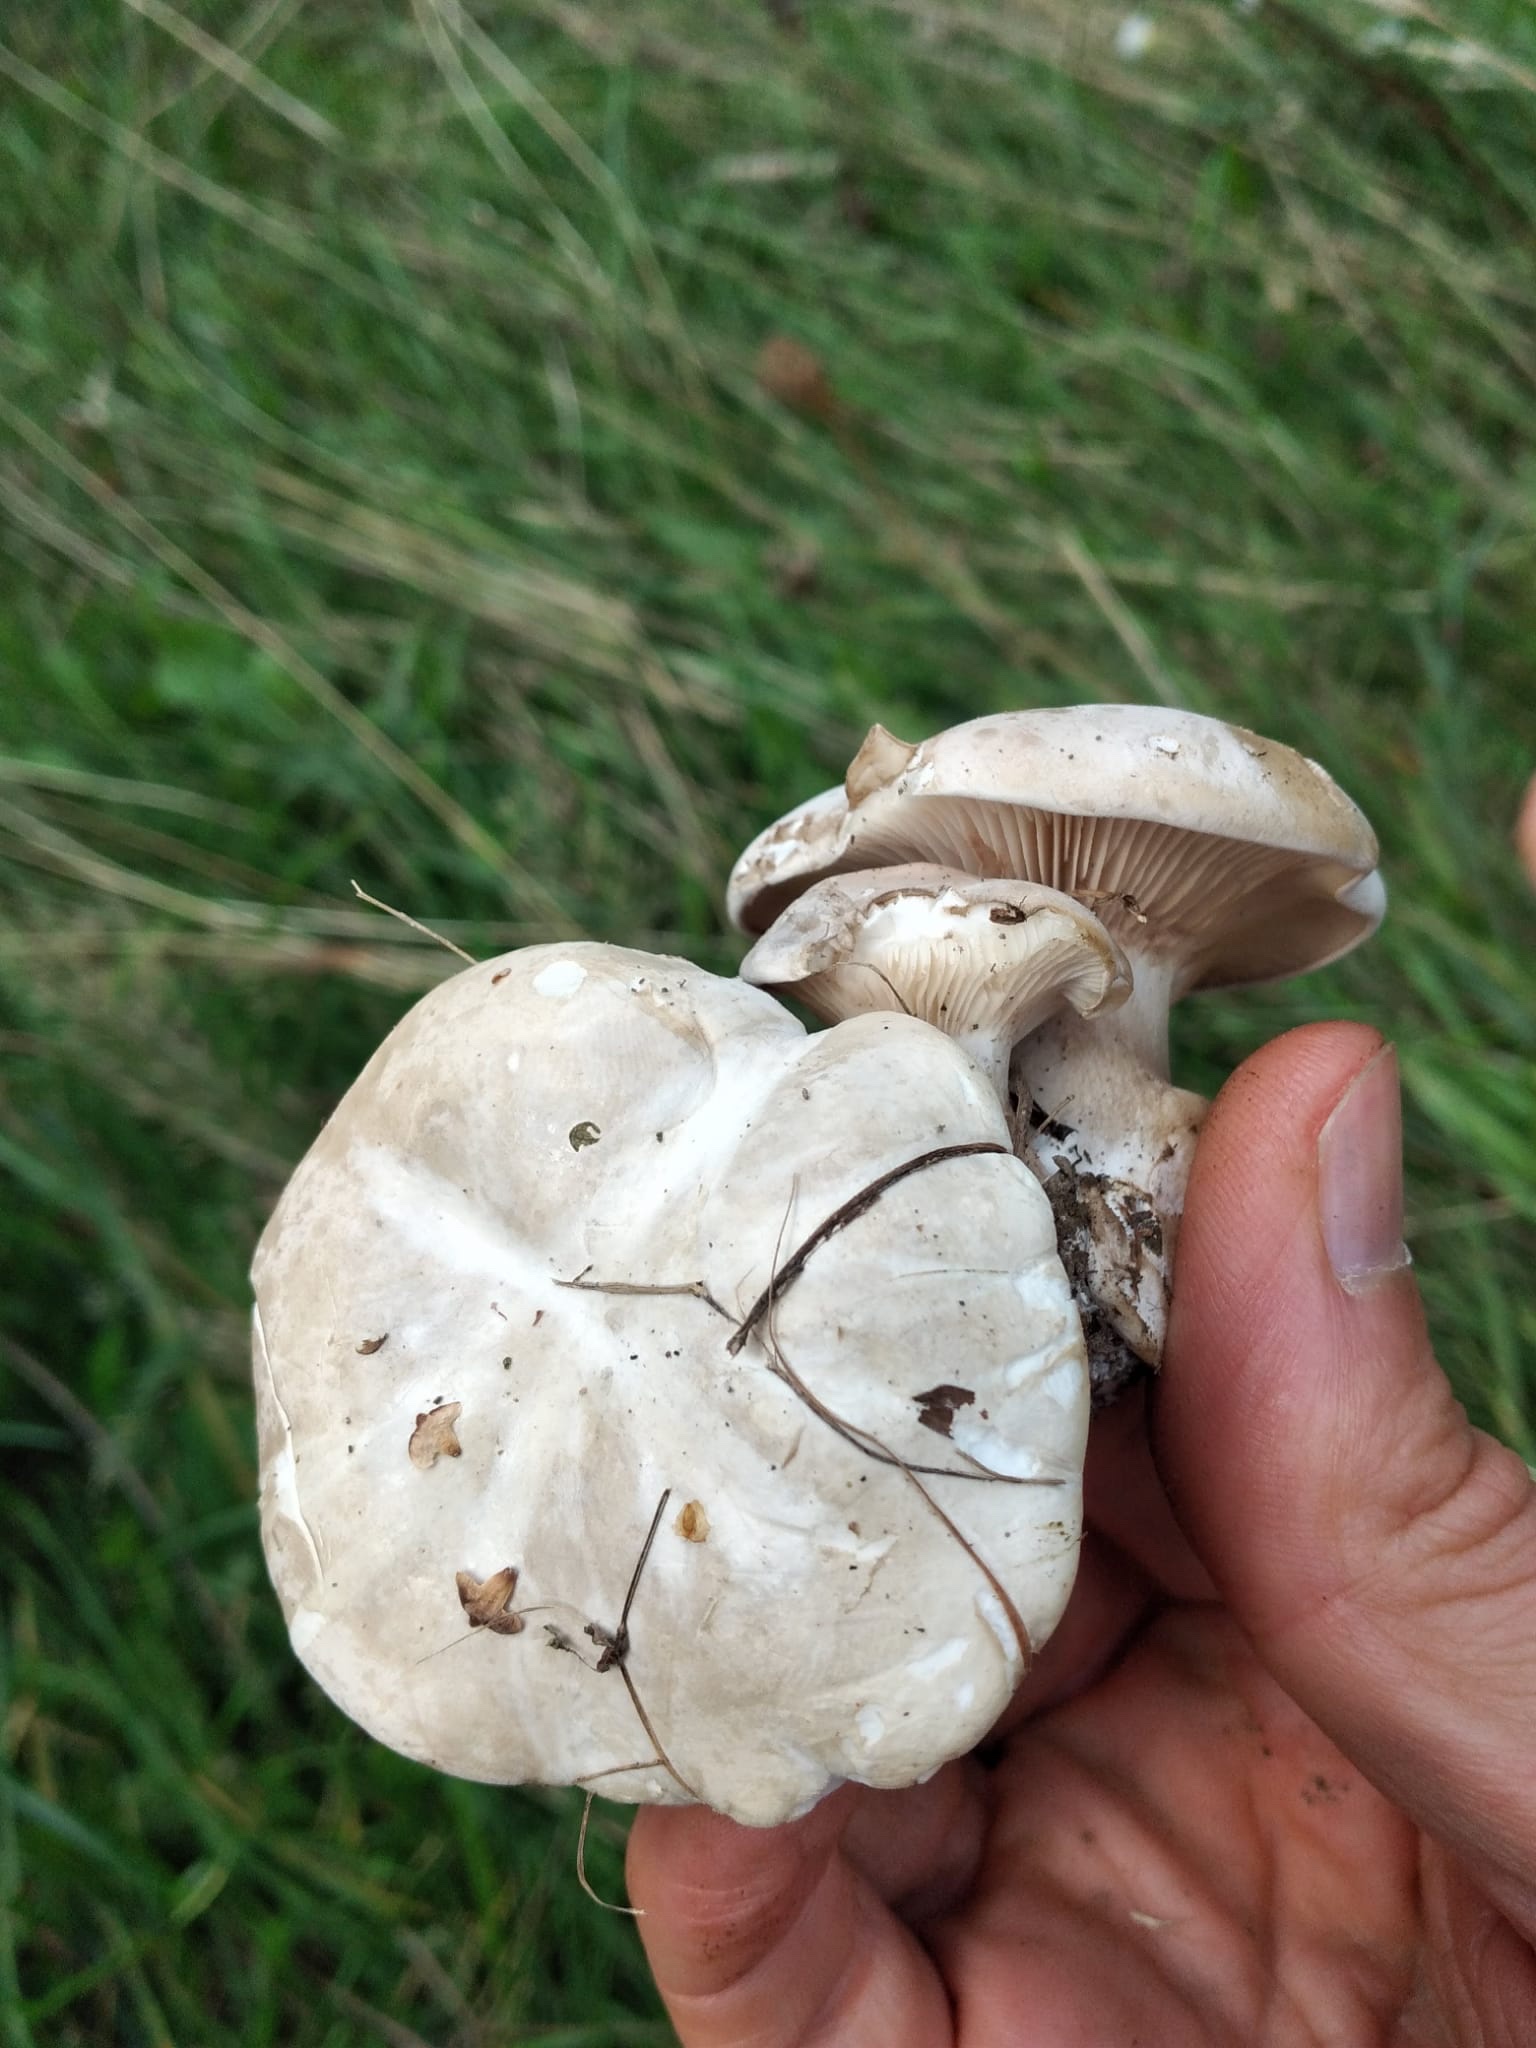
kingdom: Fungi
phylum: Basidiomycota
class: Agaricomycetes
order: Agaricales
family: Entolomataceae
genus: Clitopilus
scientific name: Clitopilus prunulus
